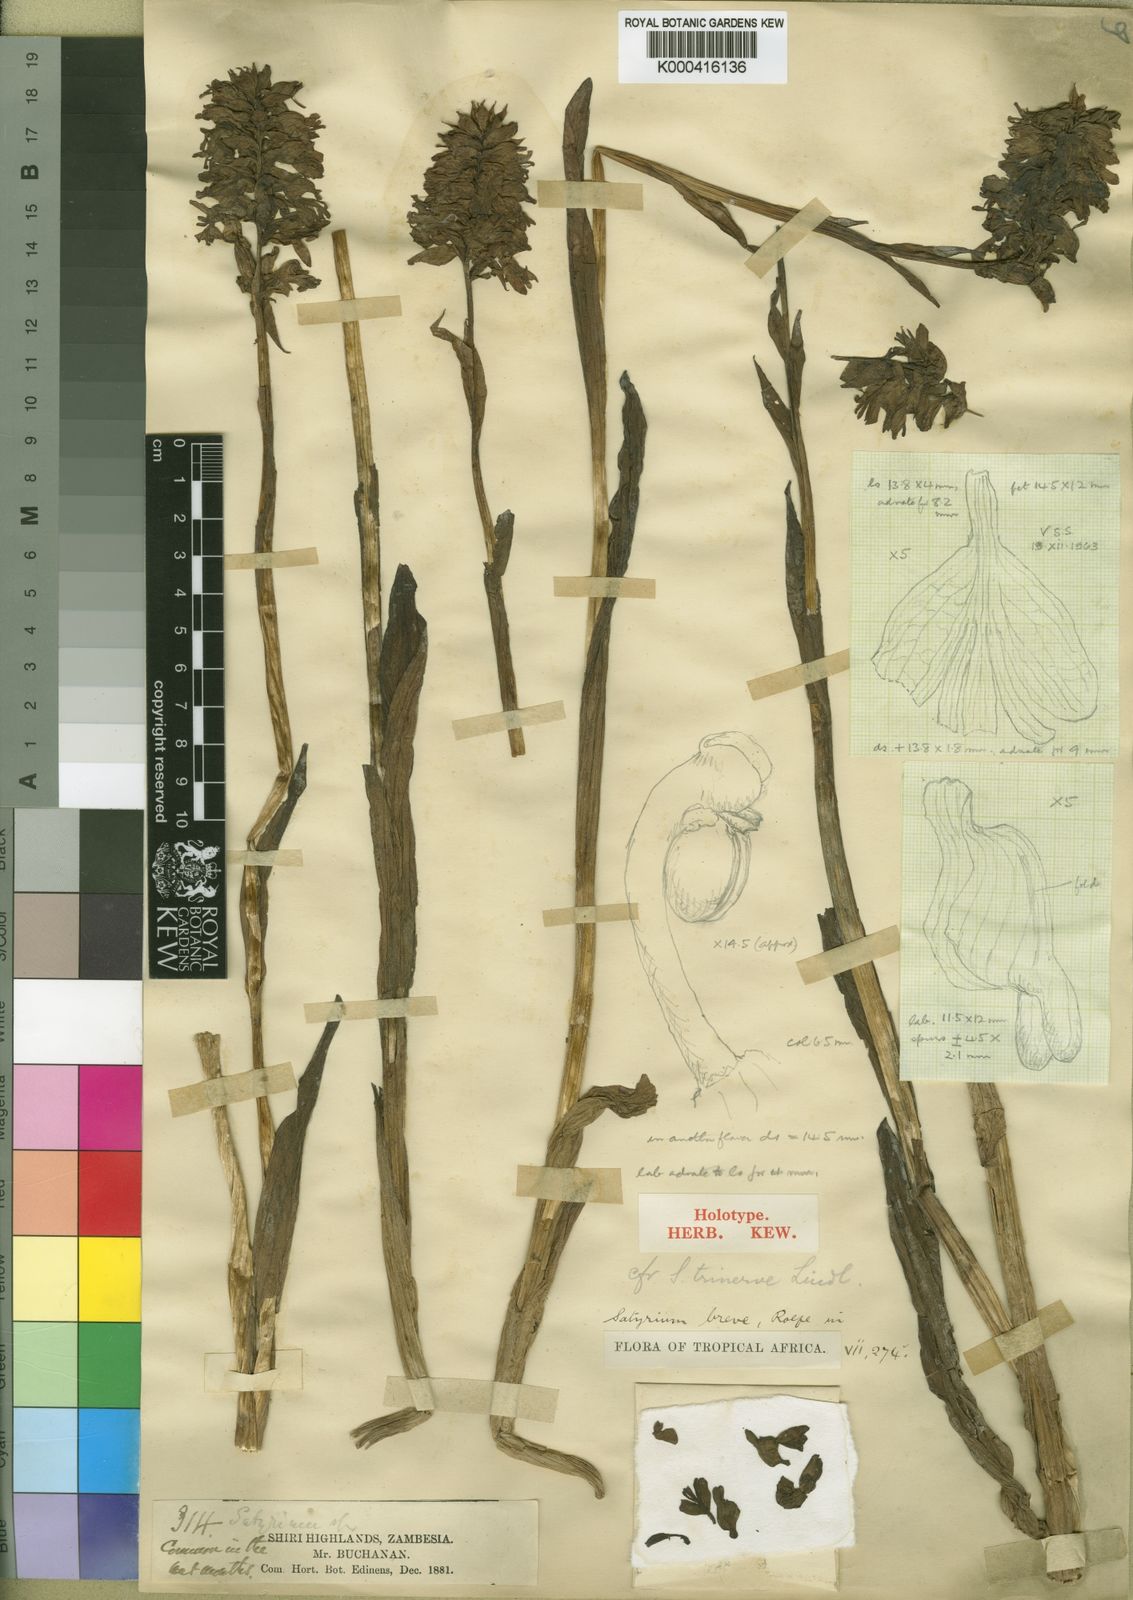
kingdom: Plantae
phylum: Tracheophyta
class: Liliopsida
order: Asparagales
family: Orchidaceae
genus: Satyrium
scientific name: Satyrium breve
